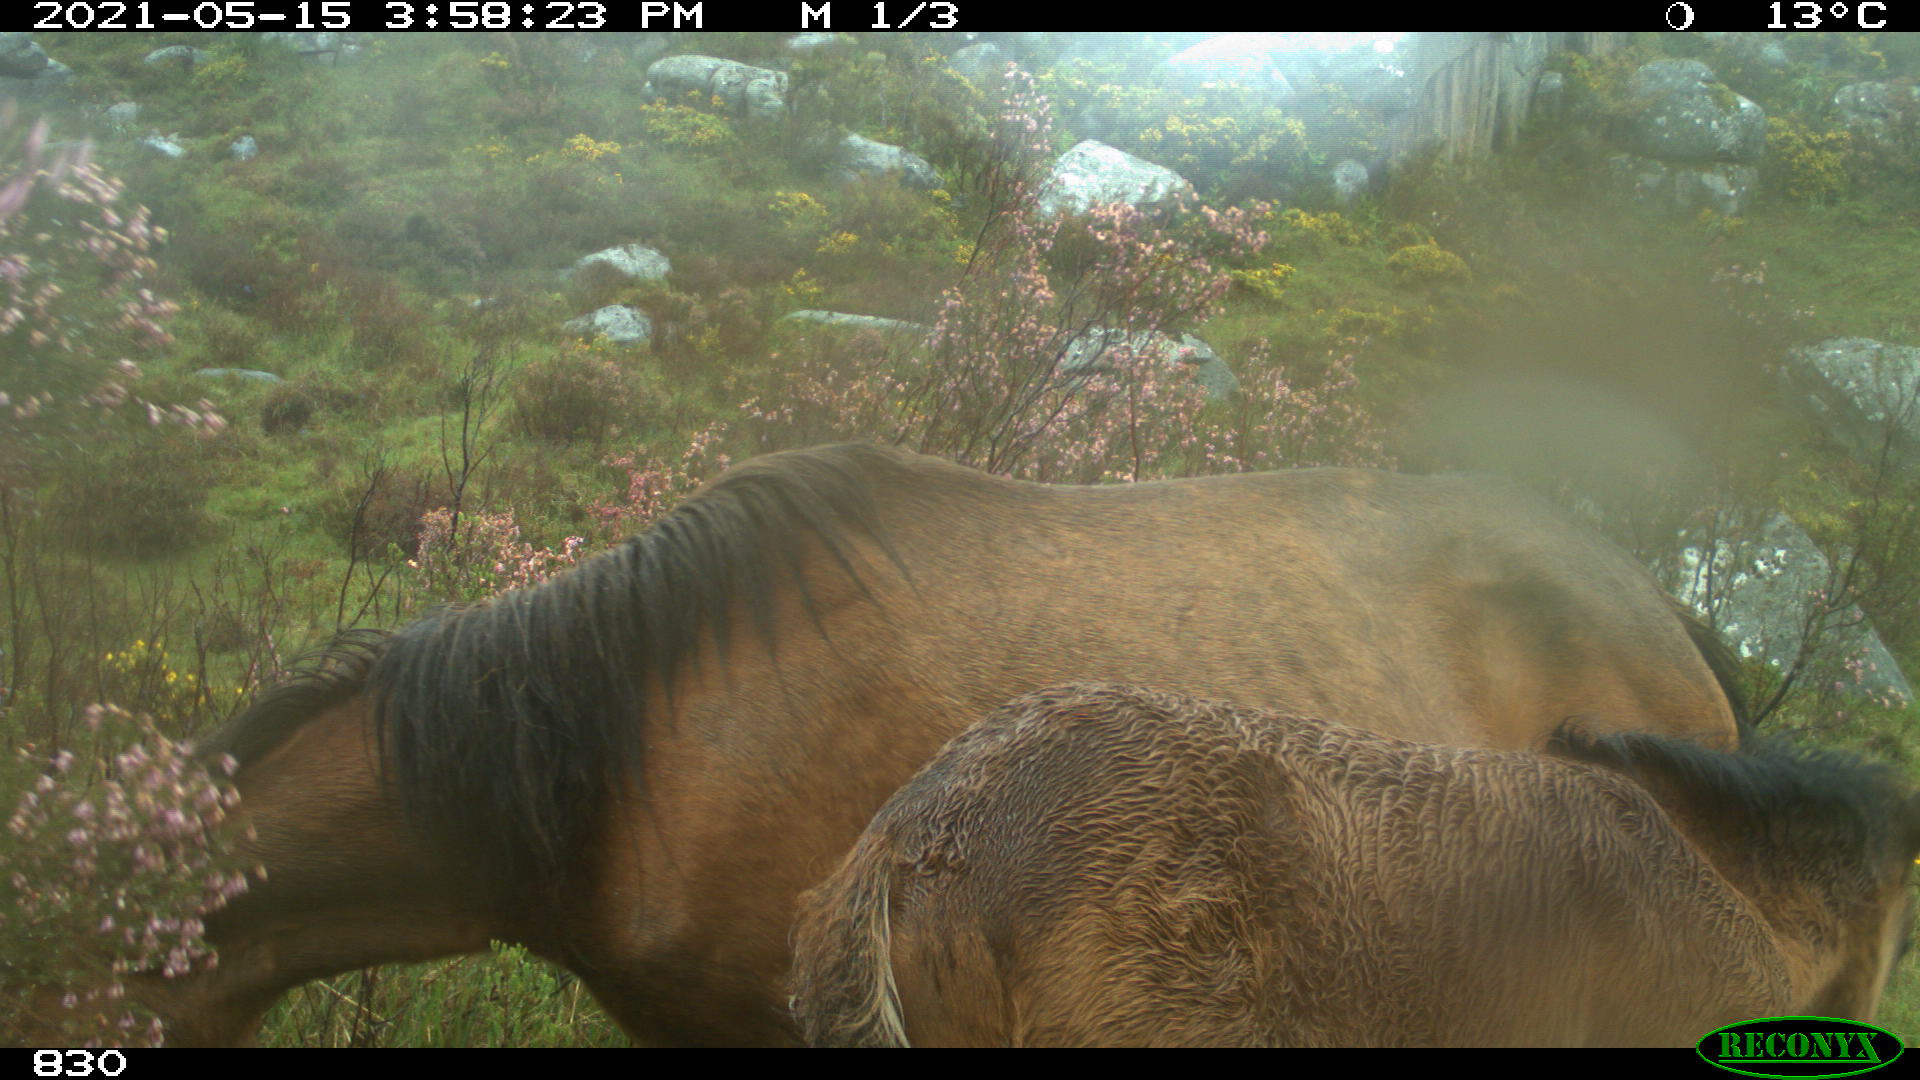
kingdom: Animalia
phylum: Chordata
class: Mammalia
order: Perissodactyla
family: Equidae
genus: Equus
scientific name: Equus caballus
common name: Horse
